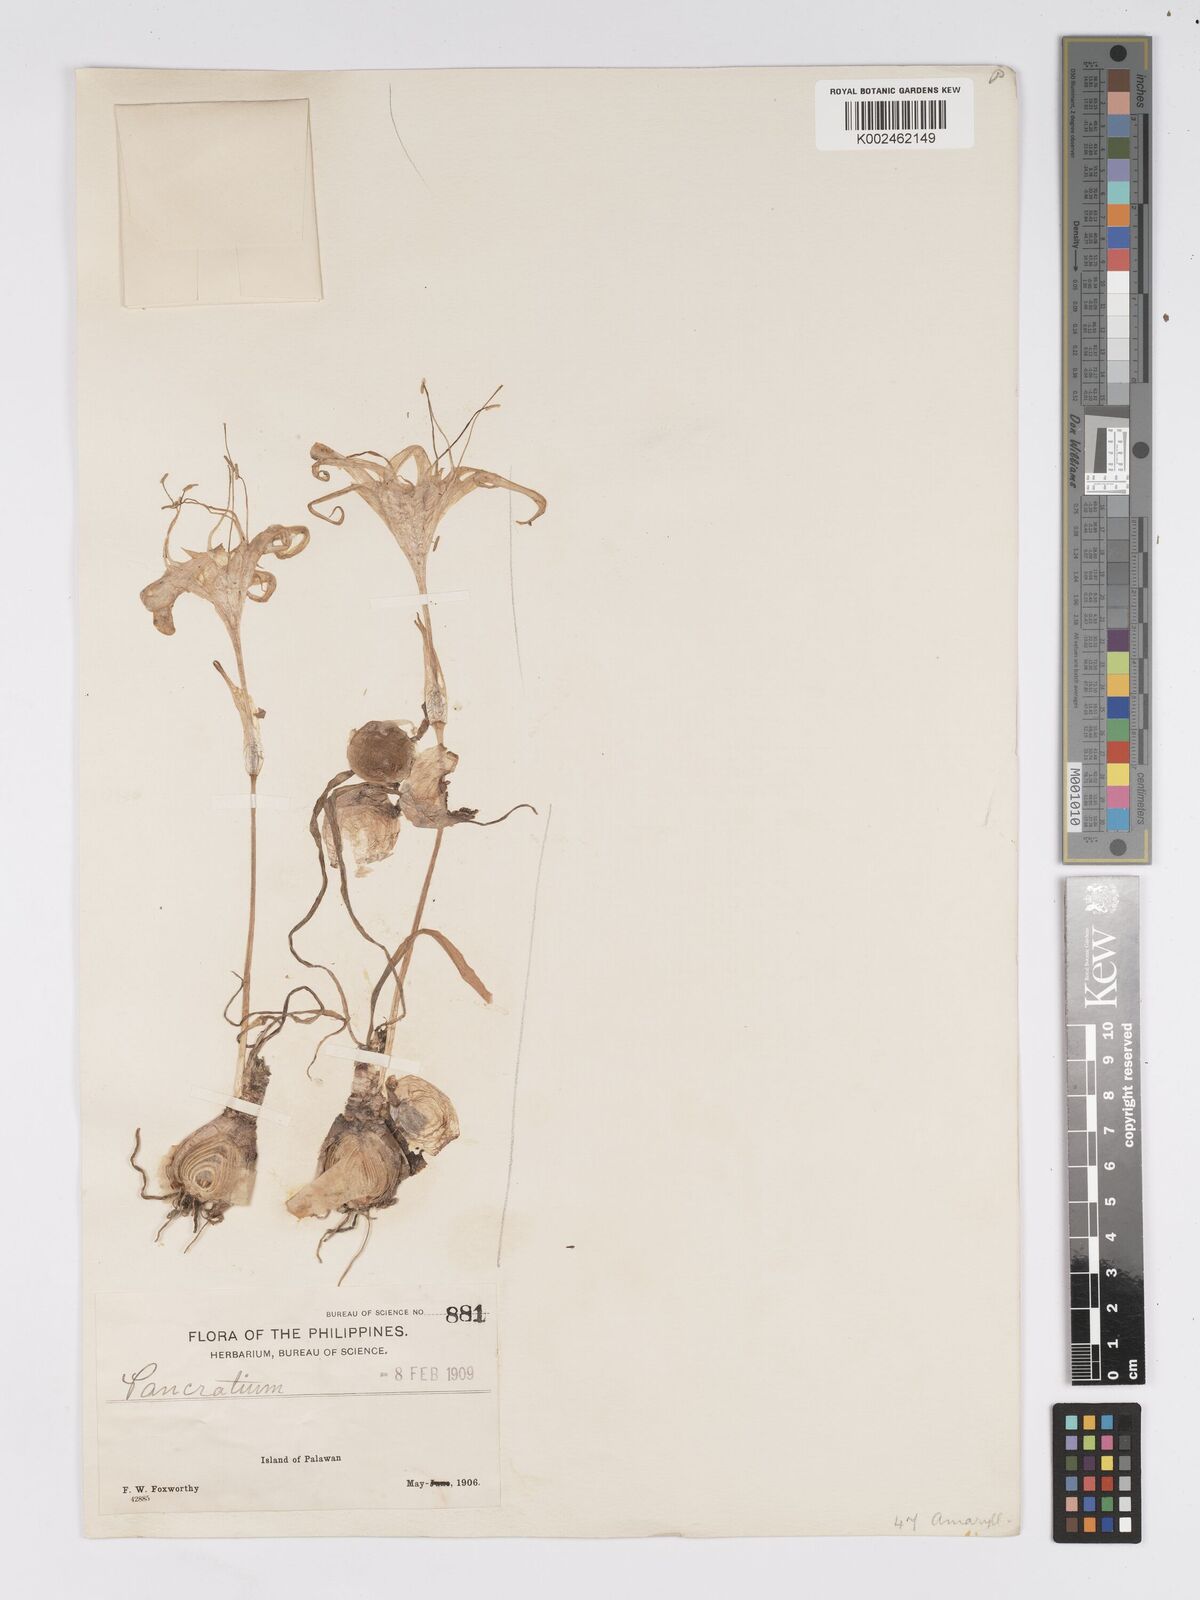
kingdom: Plantae
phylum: Tracheophyta
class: Liliopsida
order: Asparagales
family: Amaryllidaceae
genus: Pancratium
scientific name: Pancratium zeylanicum
